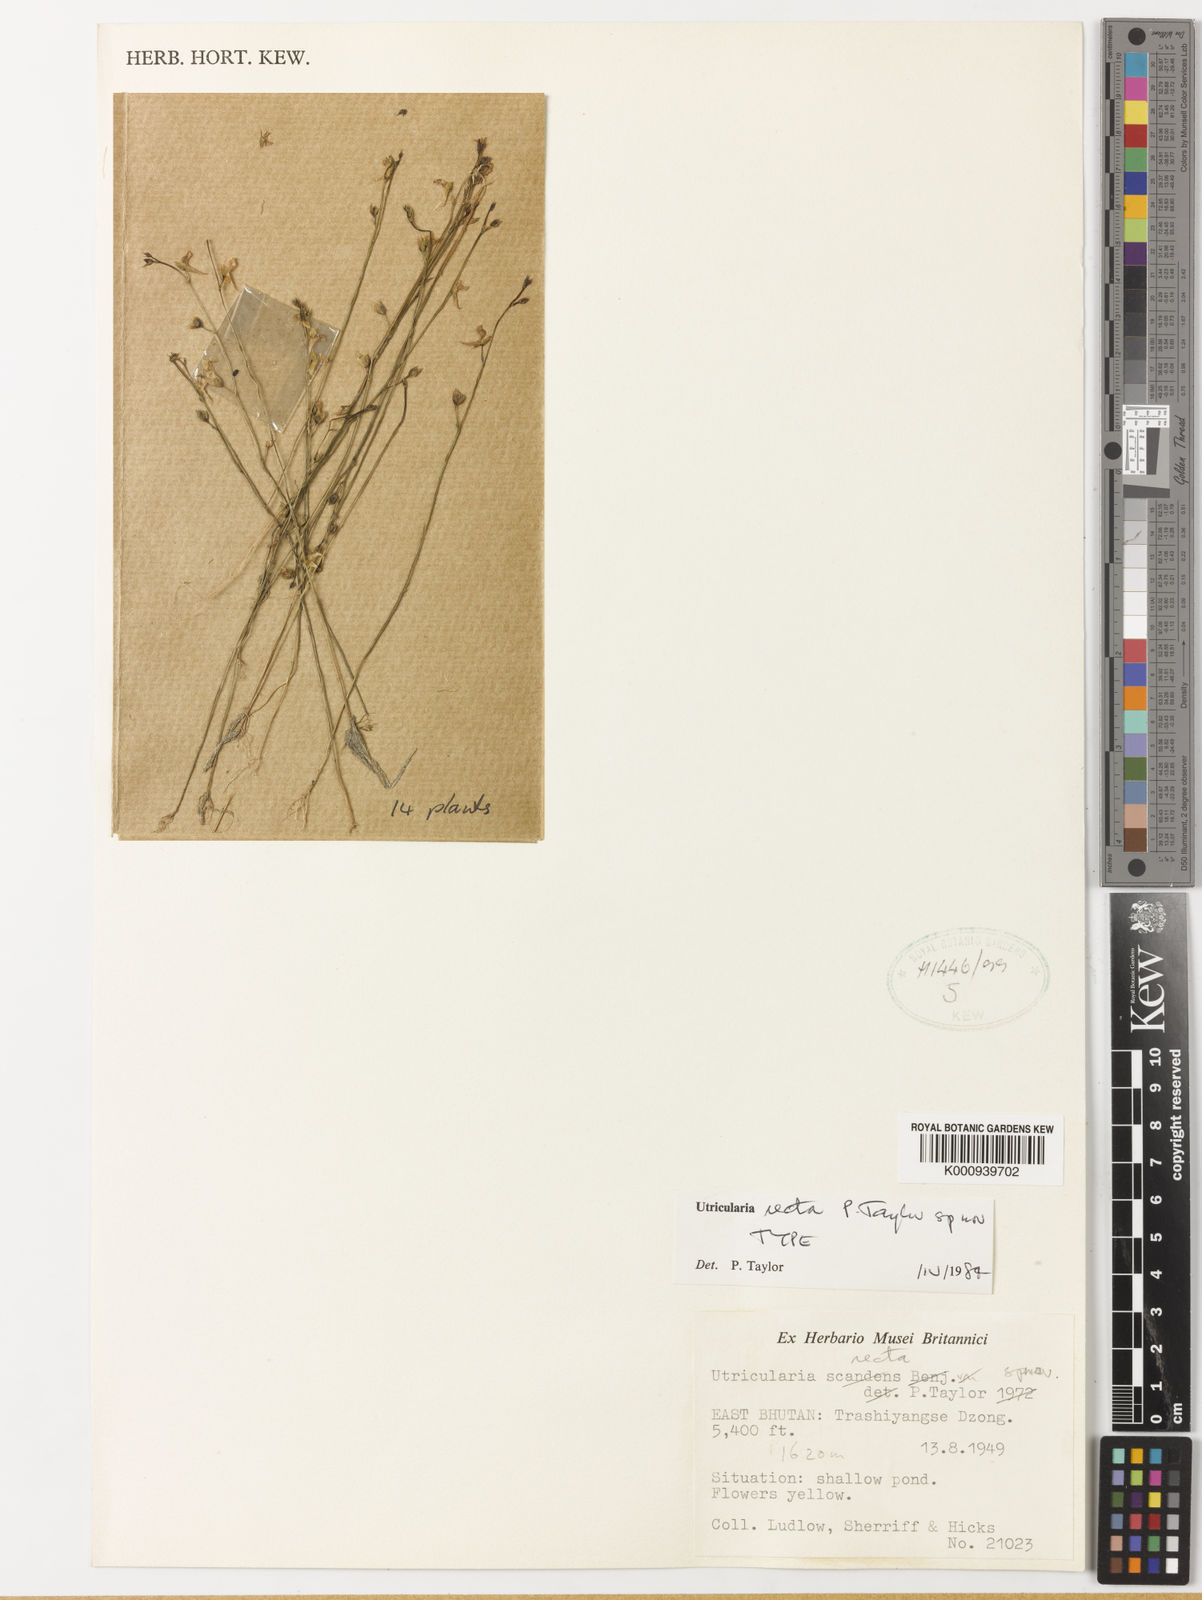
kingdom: Plantae
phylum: Tracheophyta
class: Magnoliopsida
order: Lamiales
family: Lentibulariaceae
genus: Utricularia
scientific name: Utricularia recta
